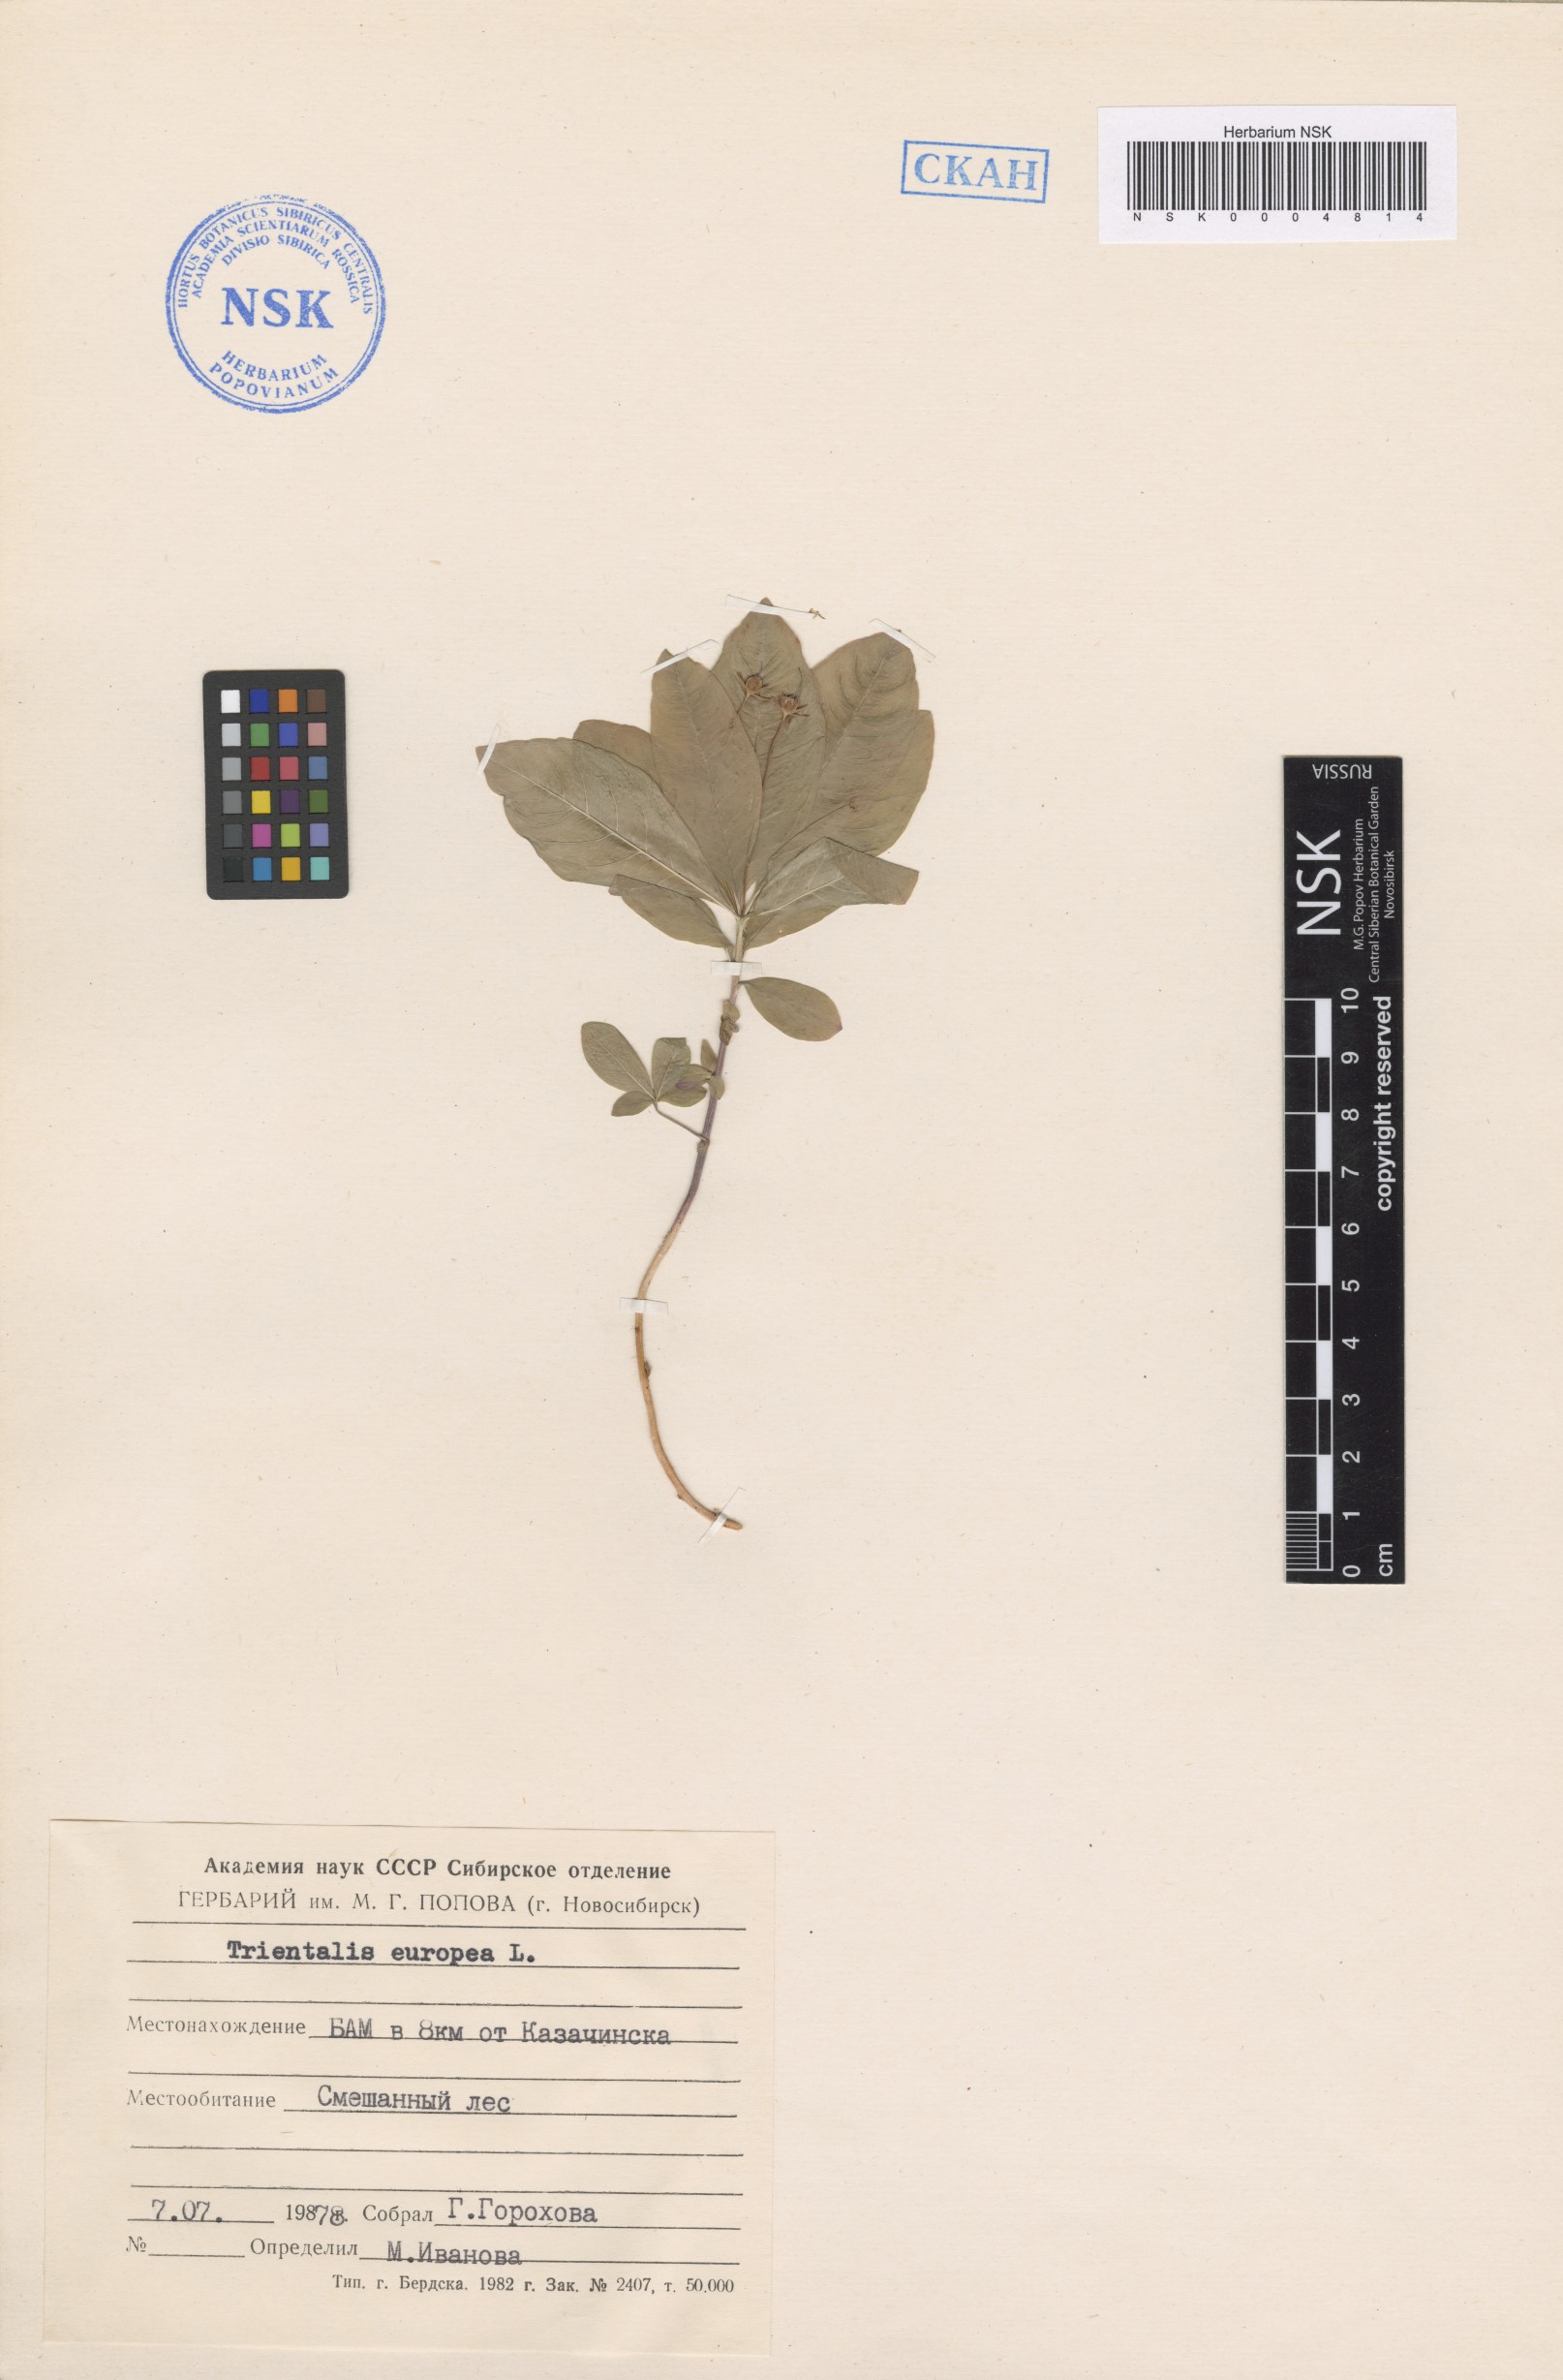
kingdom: Plantae
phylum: Tracheophyta
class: Magnoliopsida
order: Ericales
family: Primulaceae
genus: Lysimachia
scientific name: Lysimachia europaea
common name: Arctic starflower
